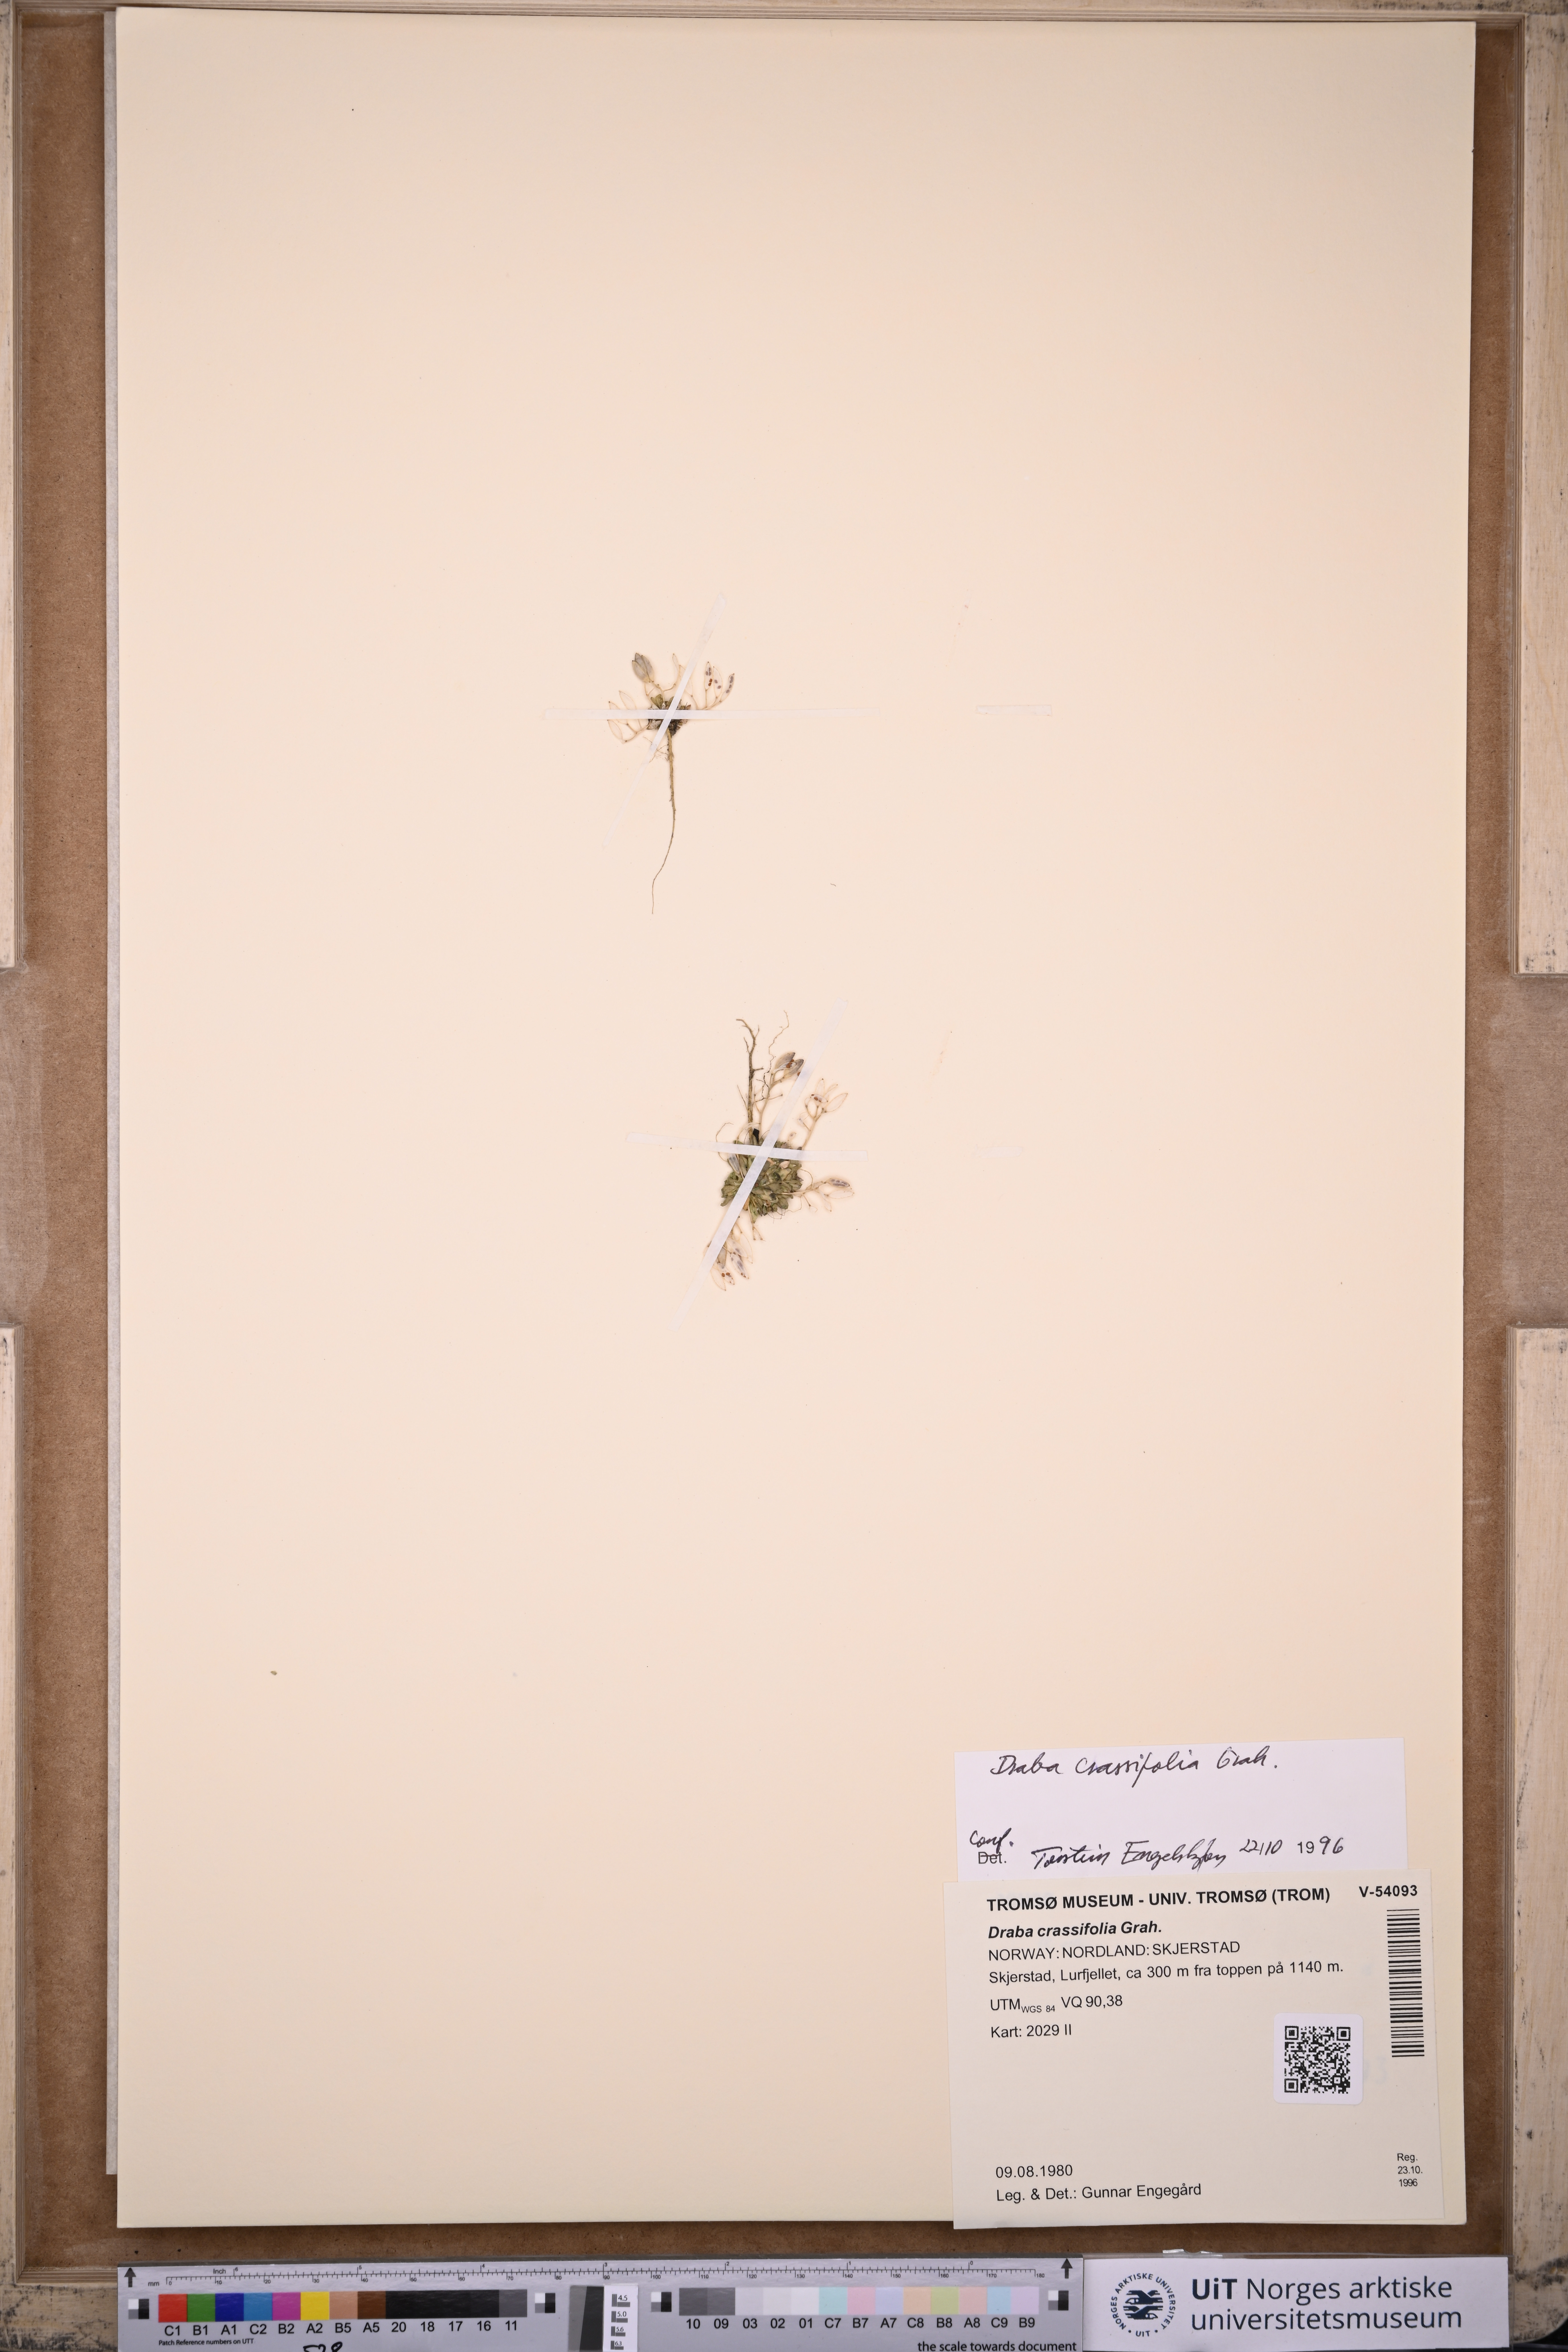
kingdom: Plantae
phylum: Tracheophyta
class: Magnoliopsida
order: Brassicales
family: Brassicaceae
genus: Draba
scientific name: Draba crassifolia
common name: Rocky mountain draba
